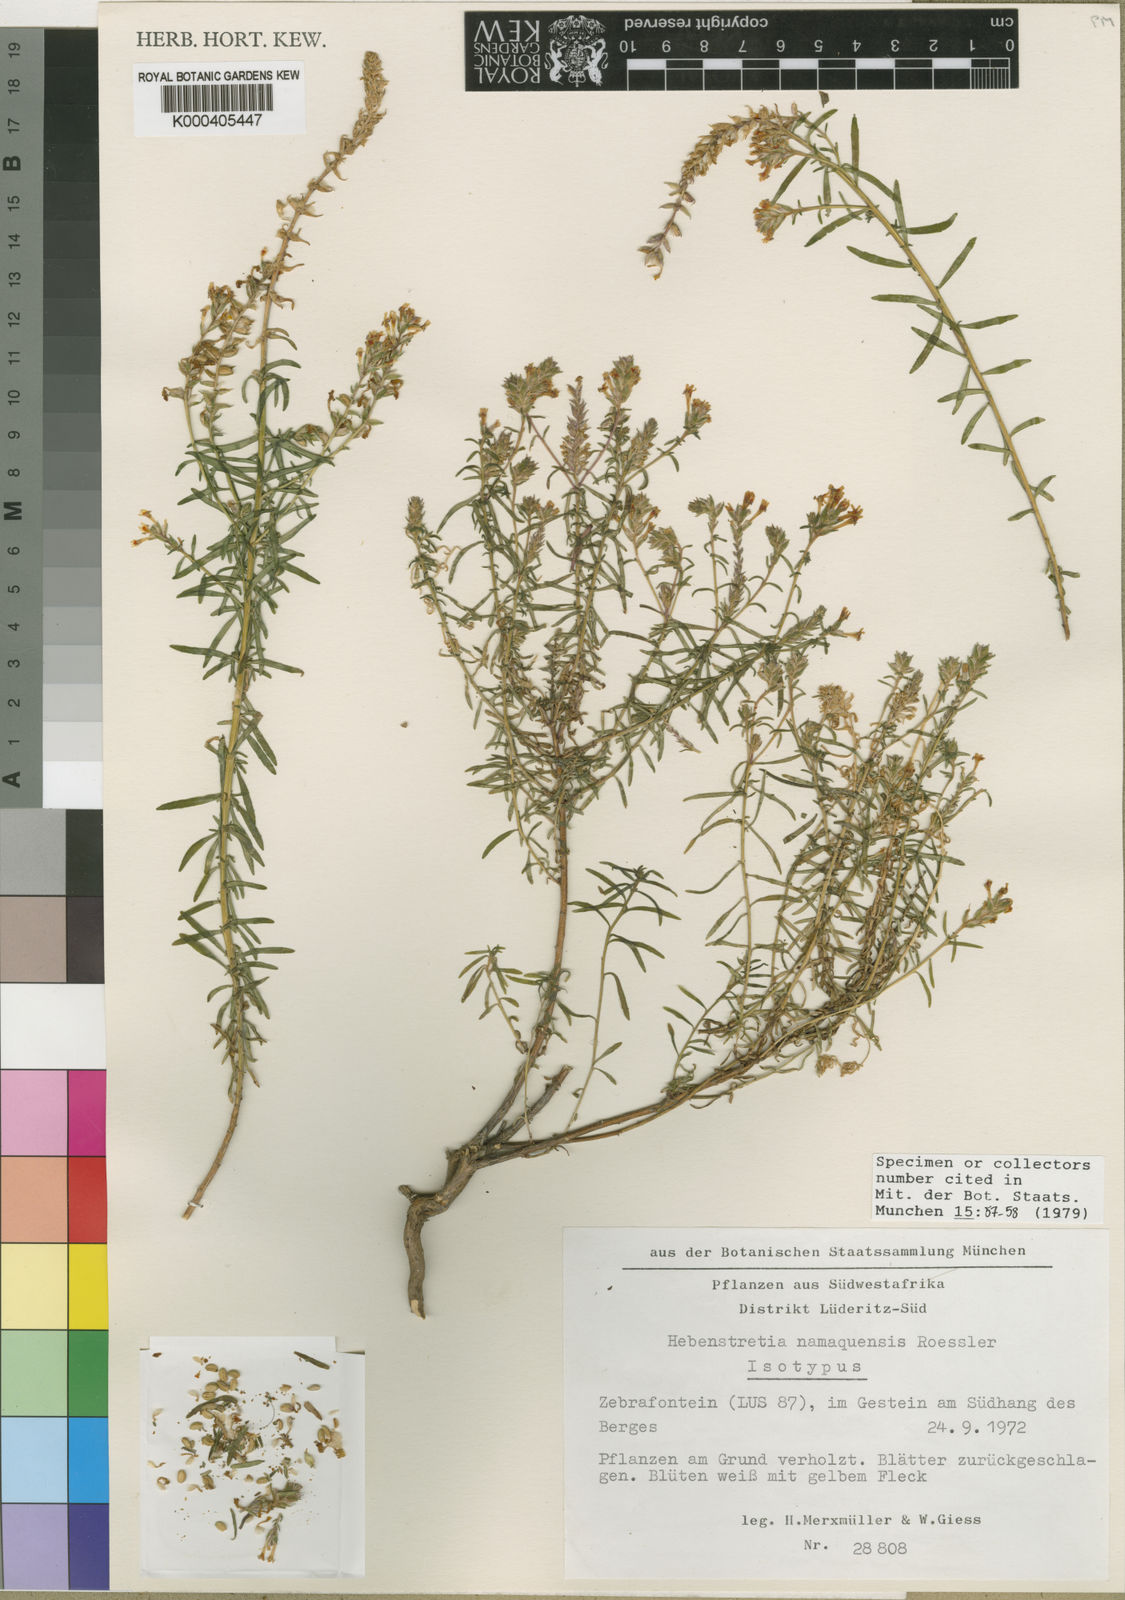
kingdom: Plantae
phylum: Tracheophyta
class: Magnoliopsida
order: Lamiales
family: Scrophulariaceae
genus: Hebenstretia
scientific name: Hebenstretia namaquensis
